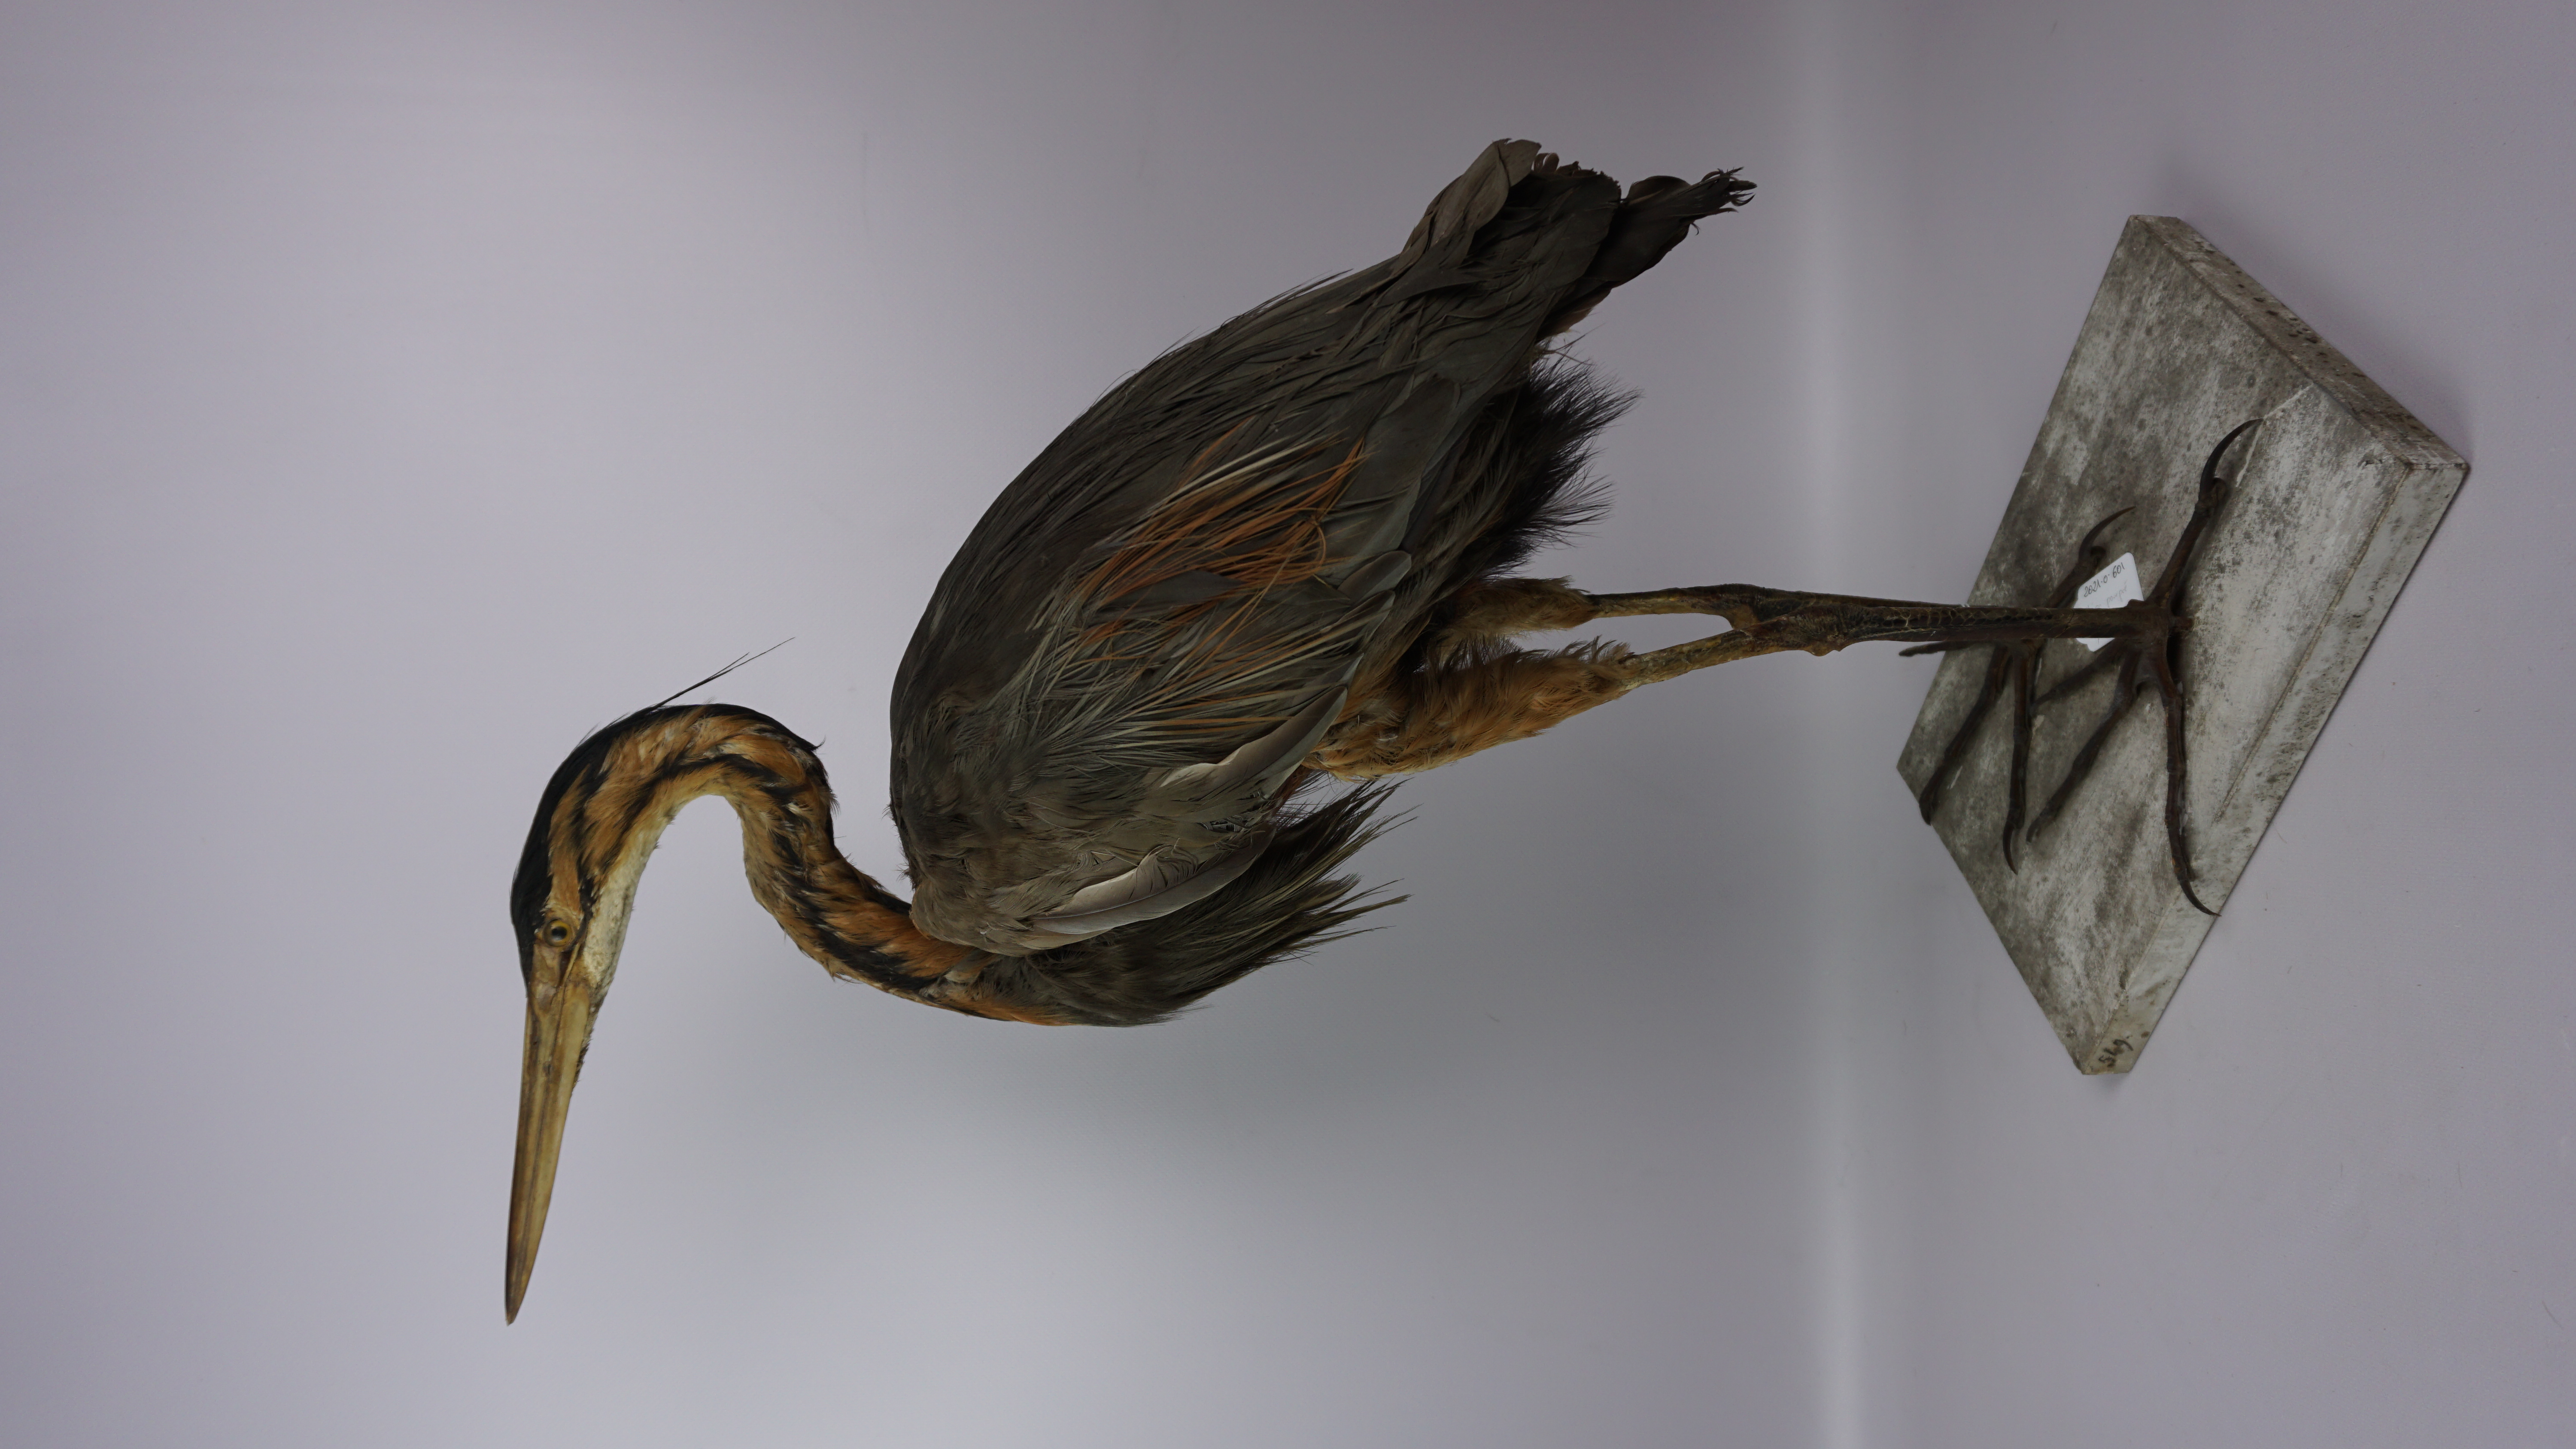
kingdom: Animalia
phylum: Chordata
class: Aves
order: Pelecaniformes
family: Ardeidae
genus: Ardea
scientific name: Ardea purpurea
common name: Purple heron
